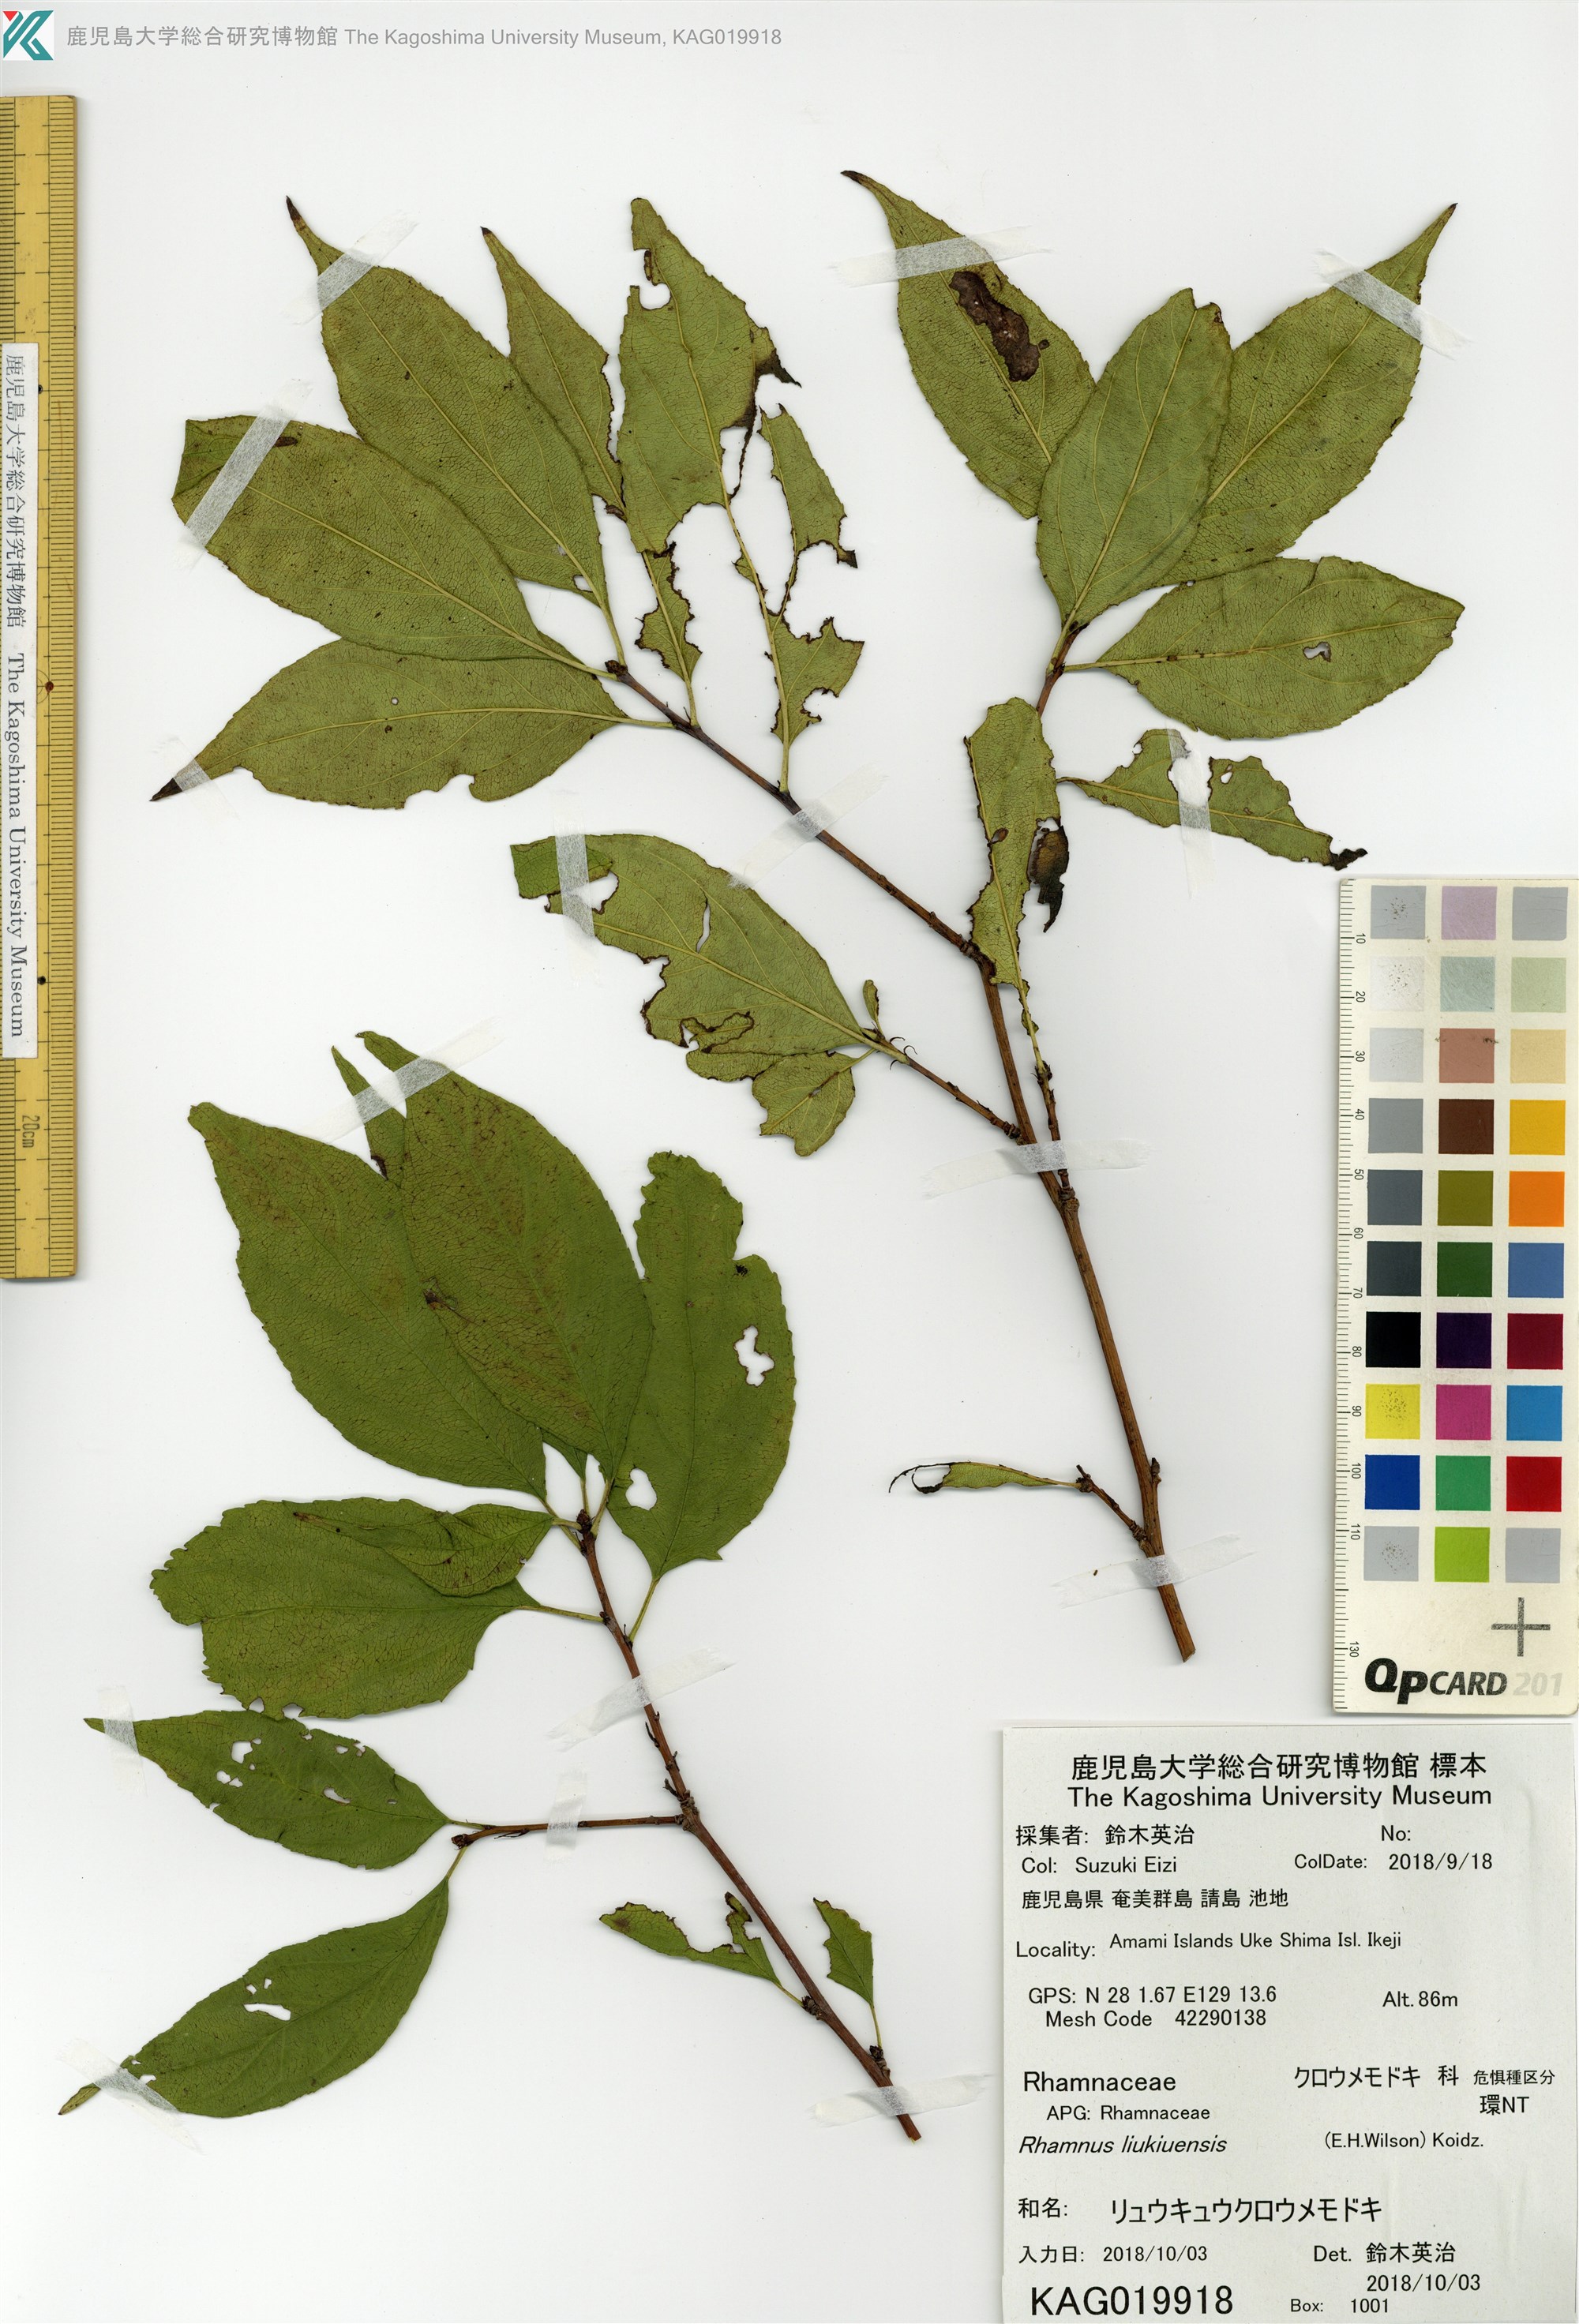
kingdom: Plantae
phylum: Tracheophyta
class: Magnoliopsida
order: Rosales
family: Rhamnaceae
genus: Rhamnus
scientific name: Rhamnus liukiuensis
